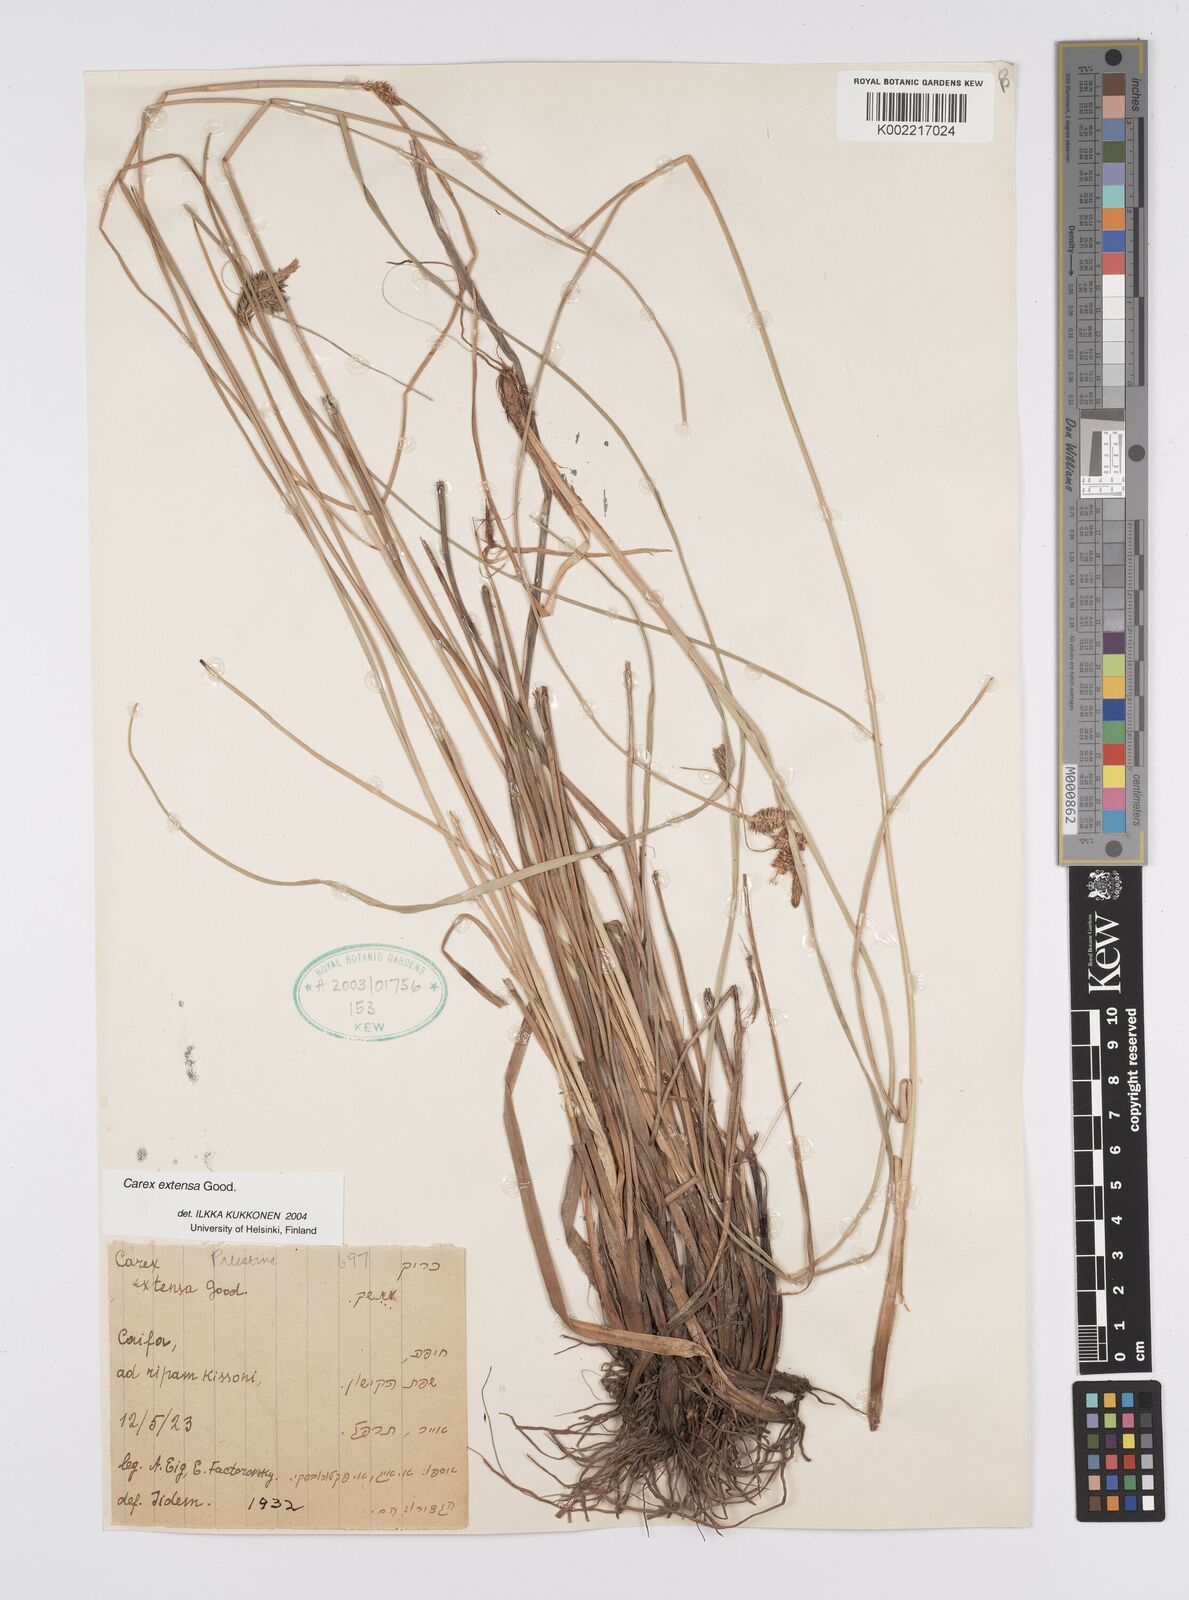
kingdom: Plantae
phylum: Tracheophyta
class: Liliopsida
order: Poales
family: Cyperaceae
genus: Carex
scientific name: Carex extensa
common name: Long-bracted sedge
